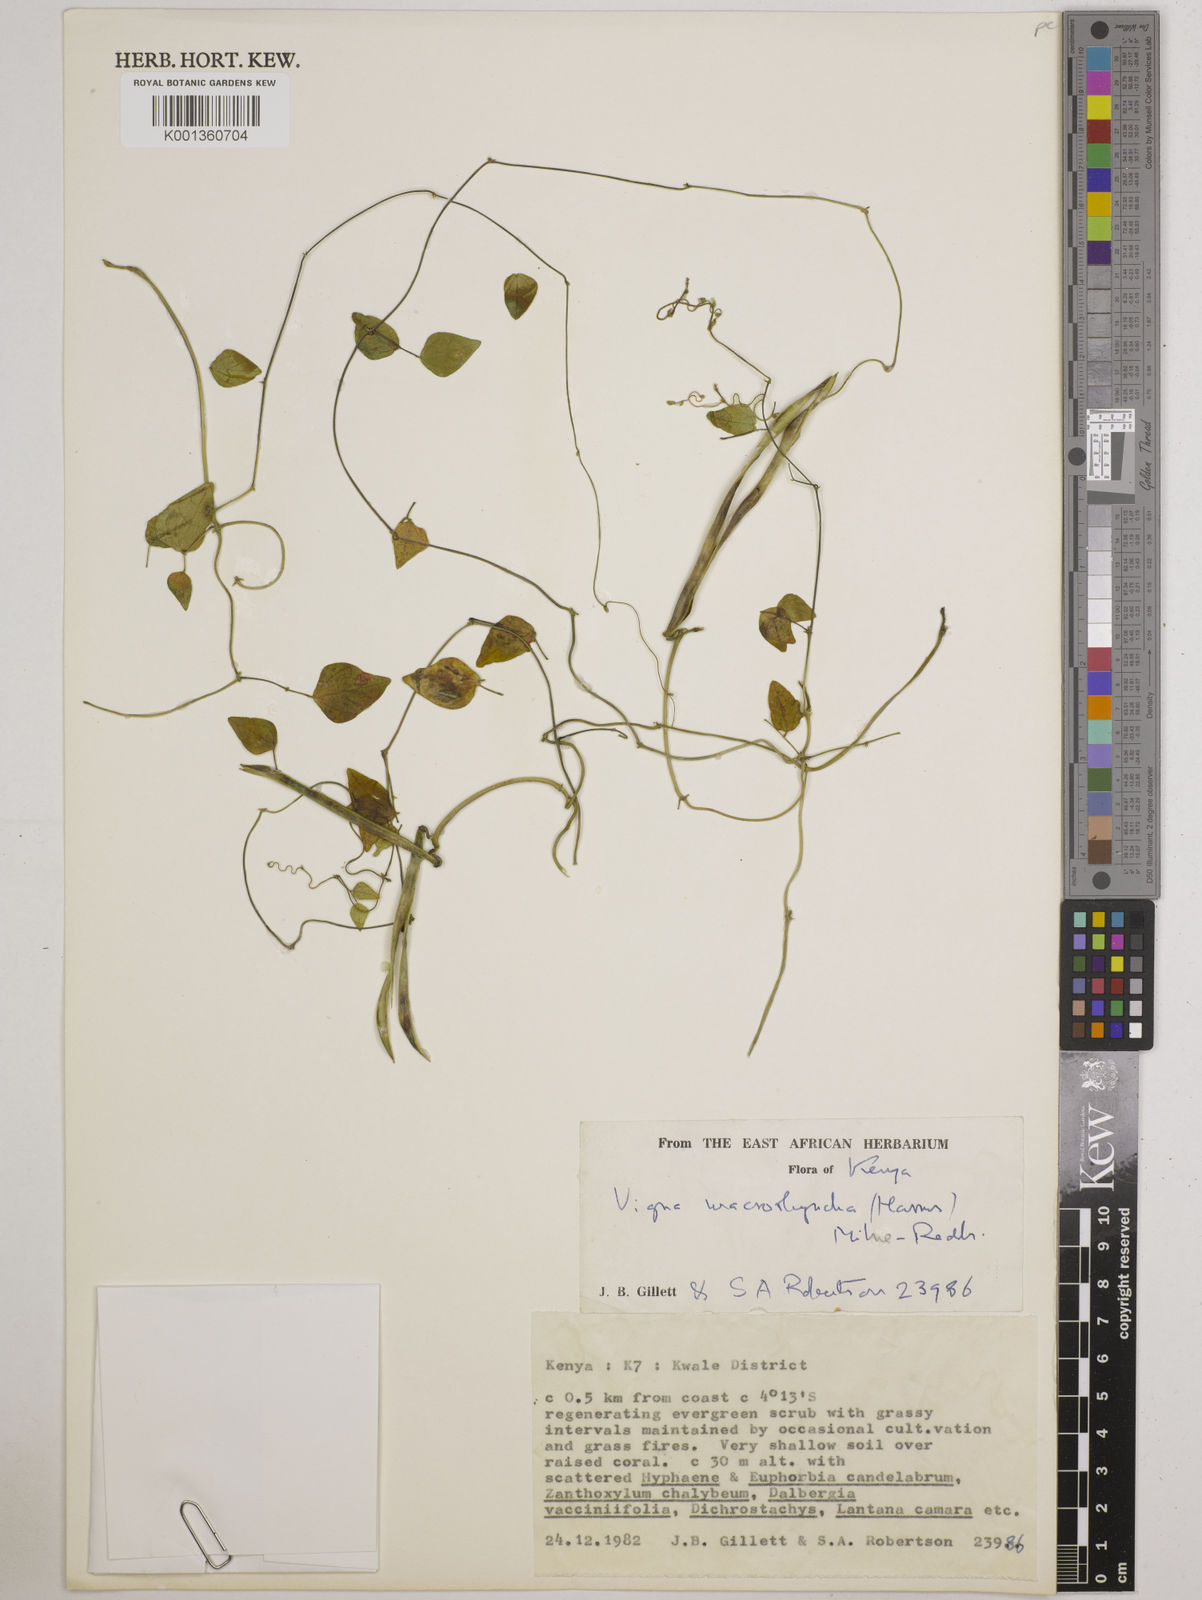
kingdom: Plantae
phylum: Tracheophyta
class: Magnoliopsida
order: Fabales
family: Fabaceae
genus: Wajira
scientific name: Wajira grahamiana
